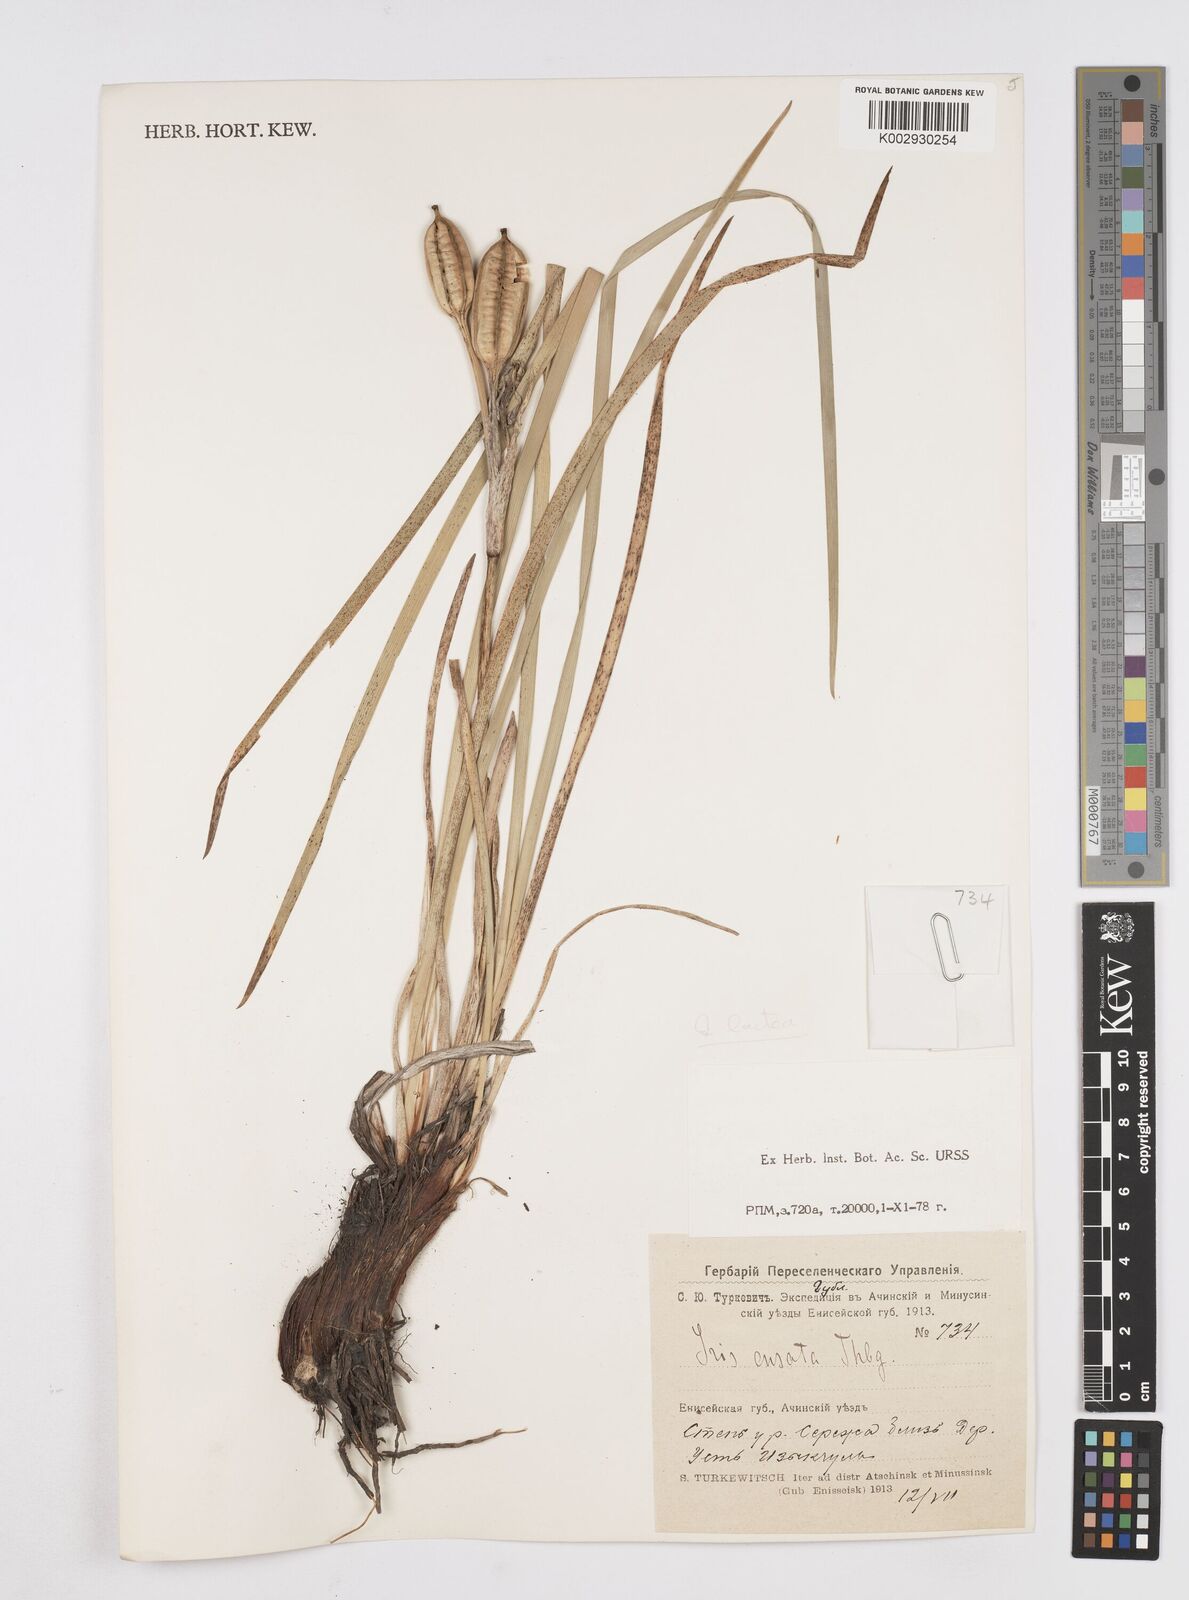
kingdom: Plantae
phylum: Tracheophyta
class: Liliopsida
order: Asparagales
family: Iridaceae
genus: Iris
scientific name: Iris lactea
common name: White-flower chinese iris
